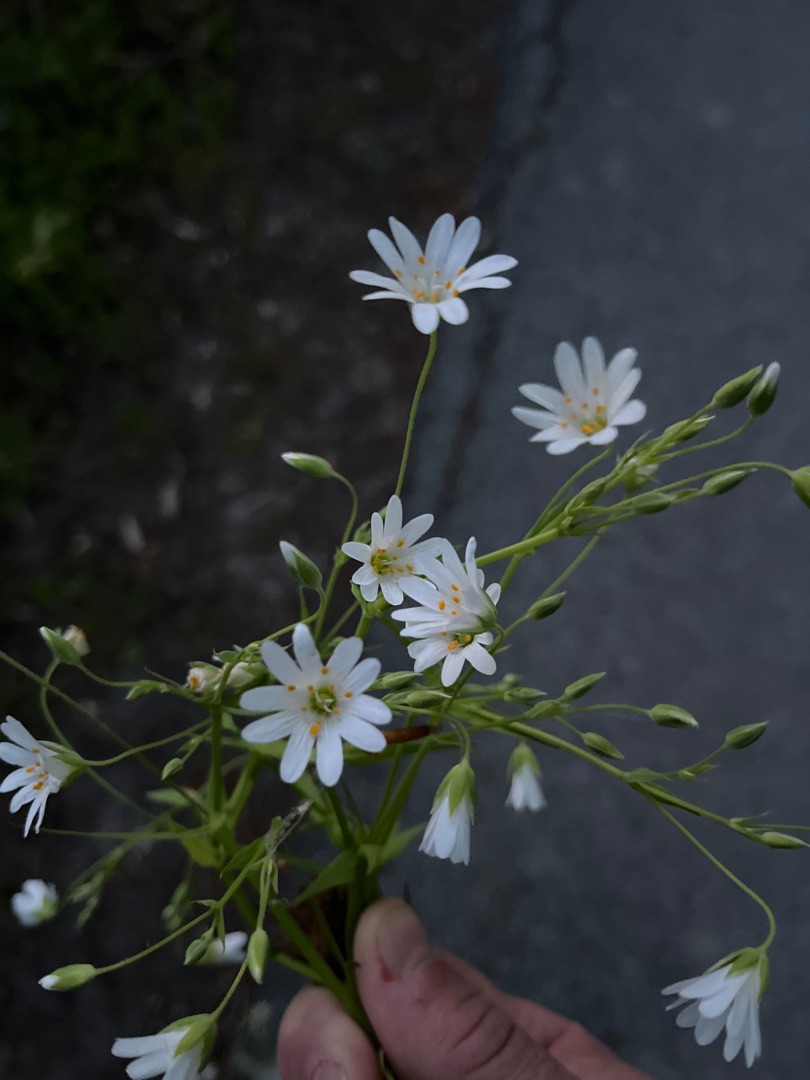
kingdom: Plantae
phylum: Tracheophyta
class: Magnoliopsida
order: Caryophyllales
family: Caryophyllaceae
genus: Rabelera
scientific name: Rabelera holostea
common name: Stor fladstjerne
